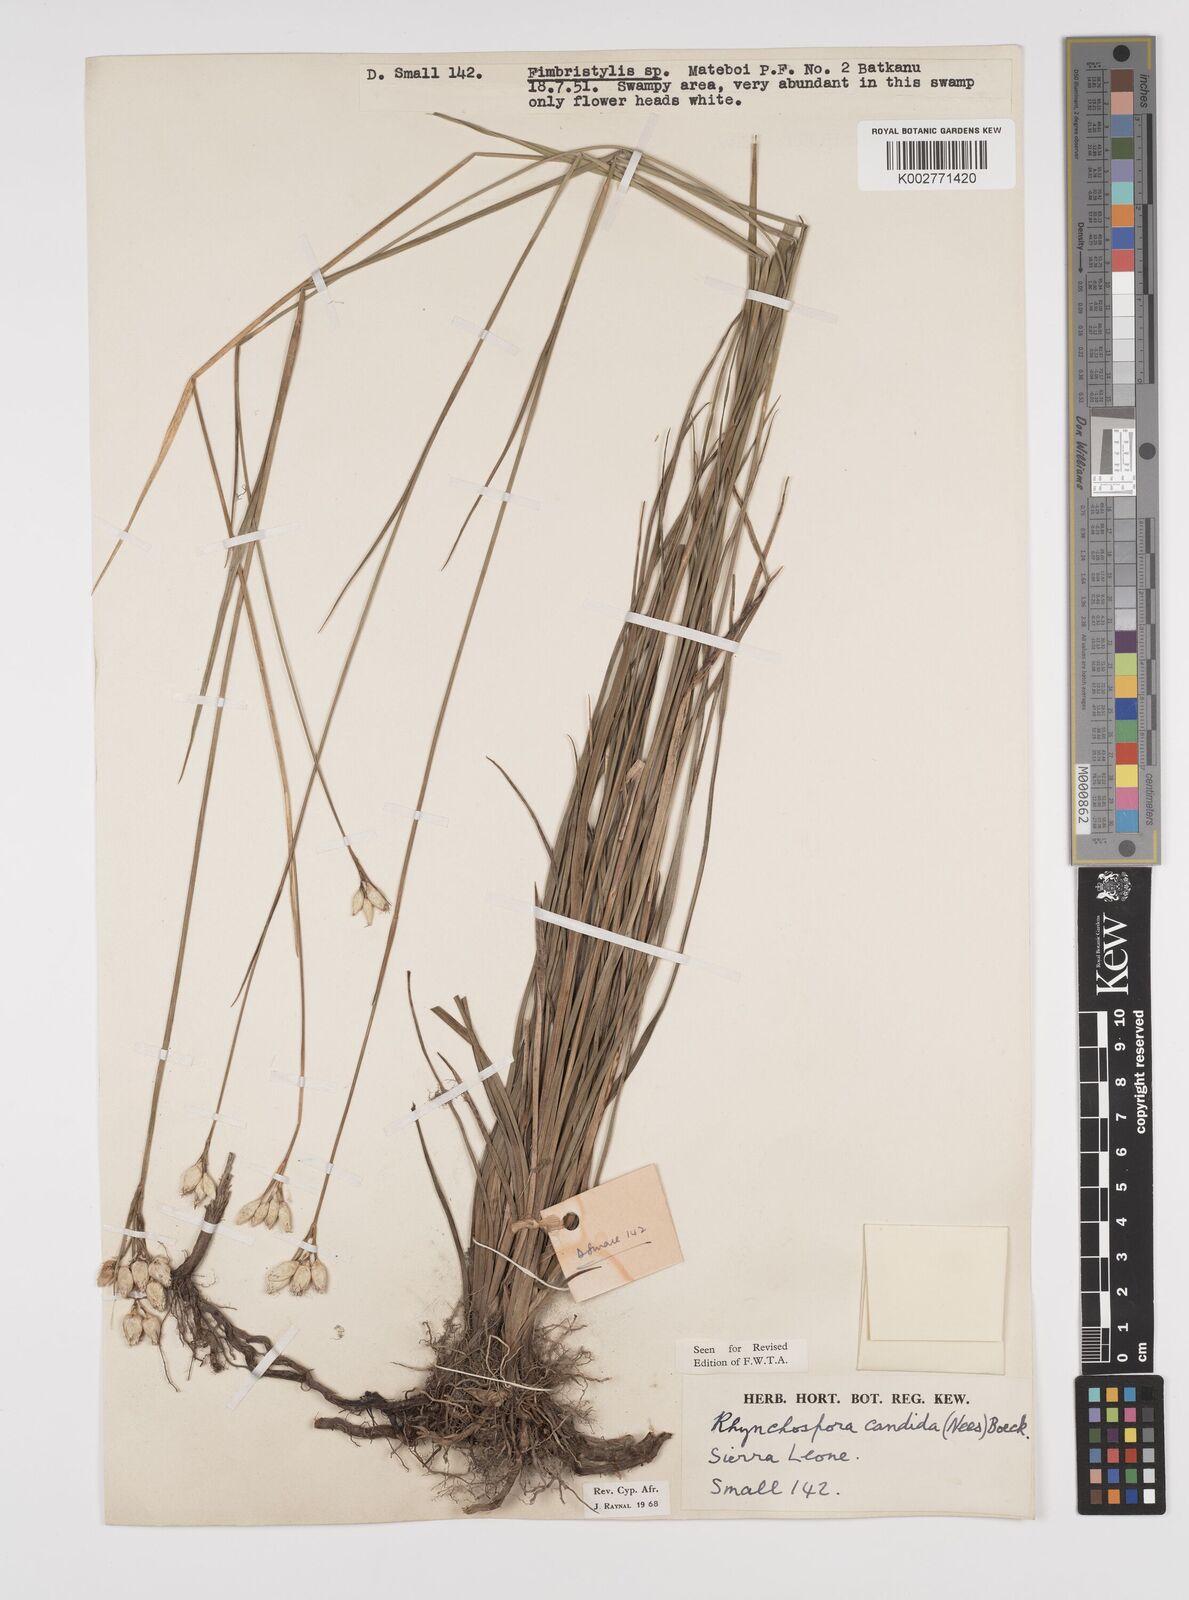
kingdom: Plantae
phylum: Tracheophyta
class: Liliopsida
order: Poales
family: Cyperaceae
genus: Rhynchospora
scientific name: Rhynchospora candida
